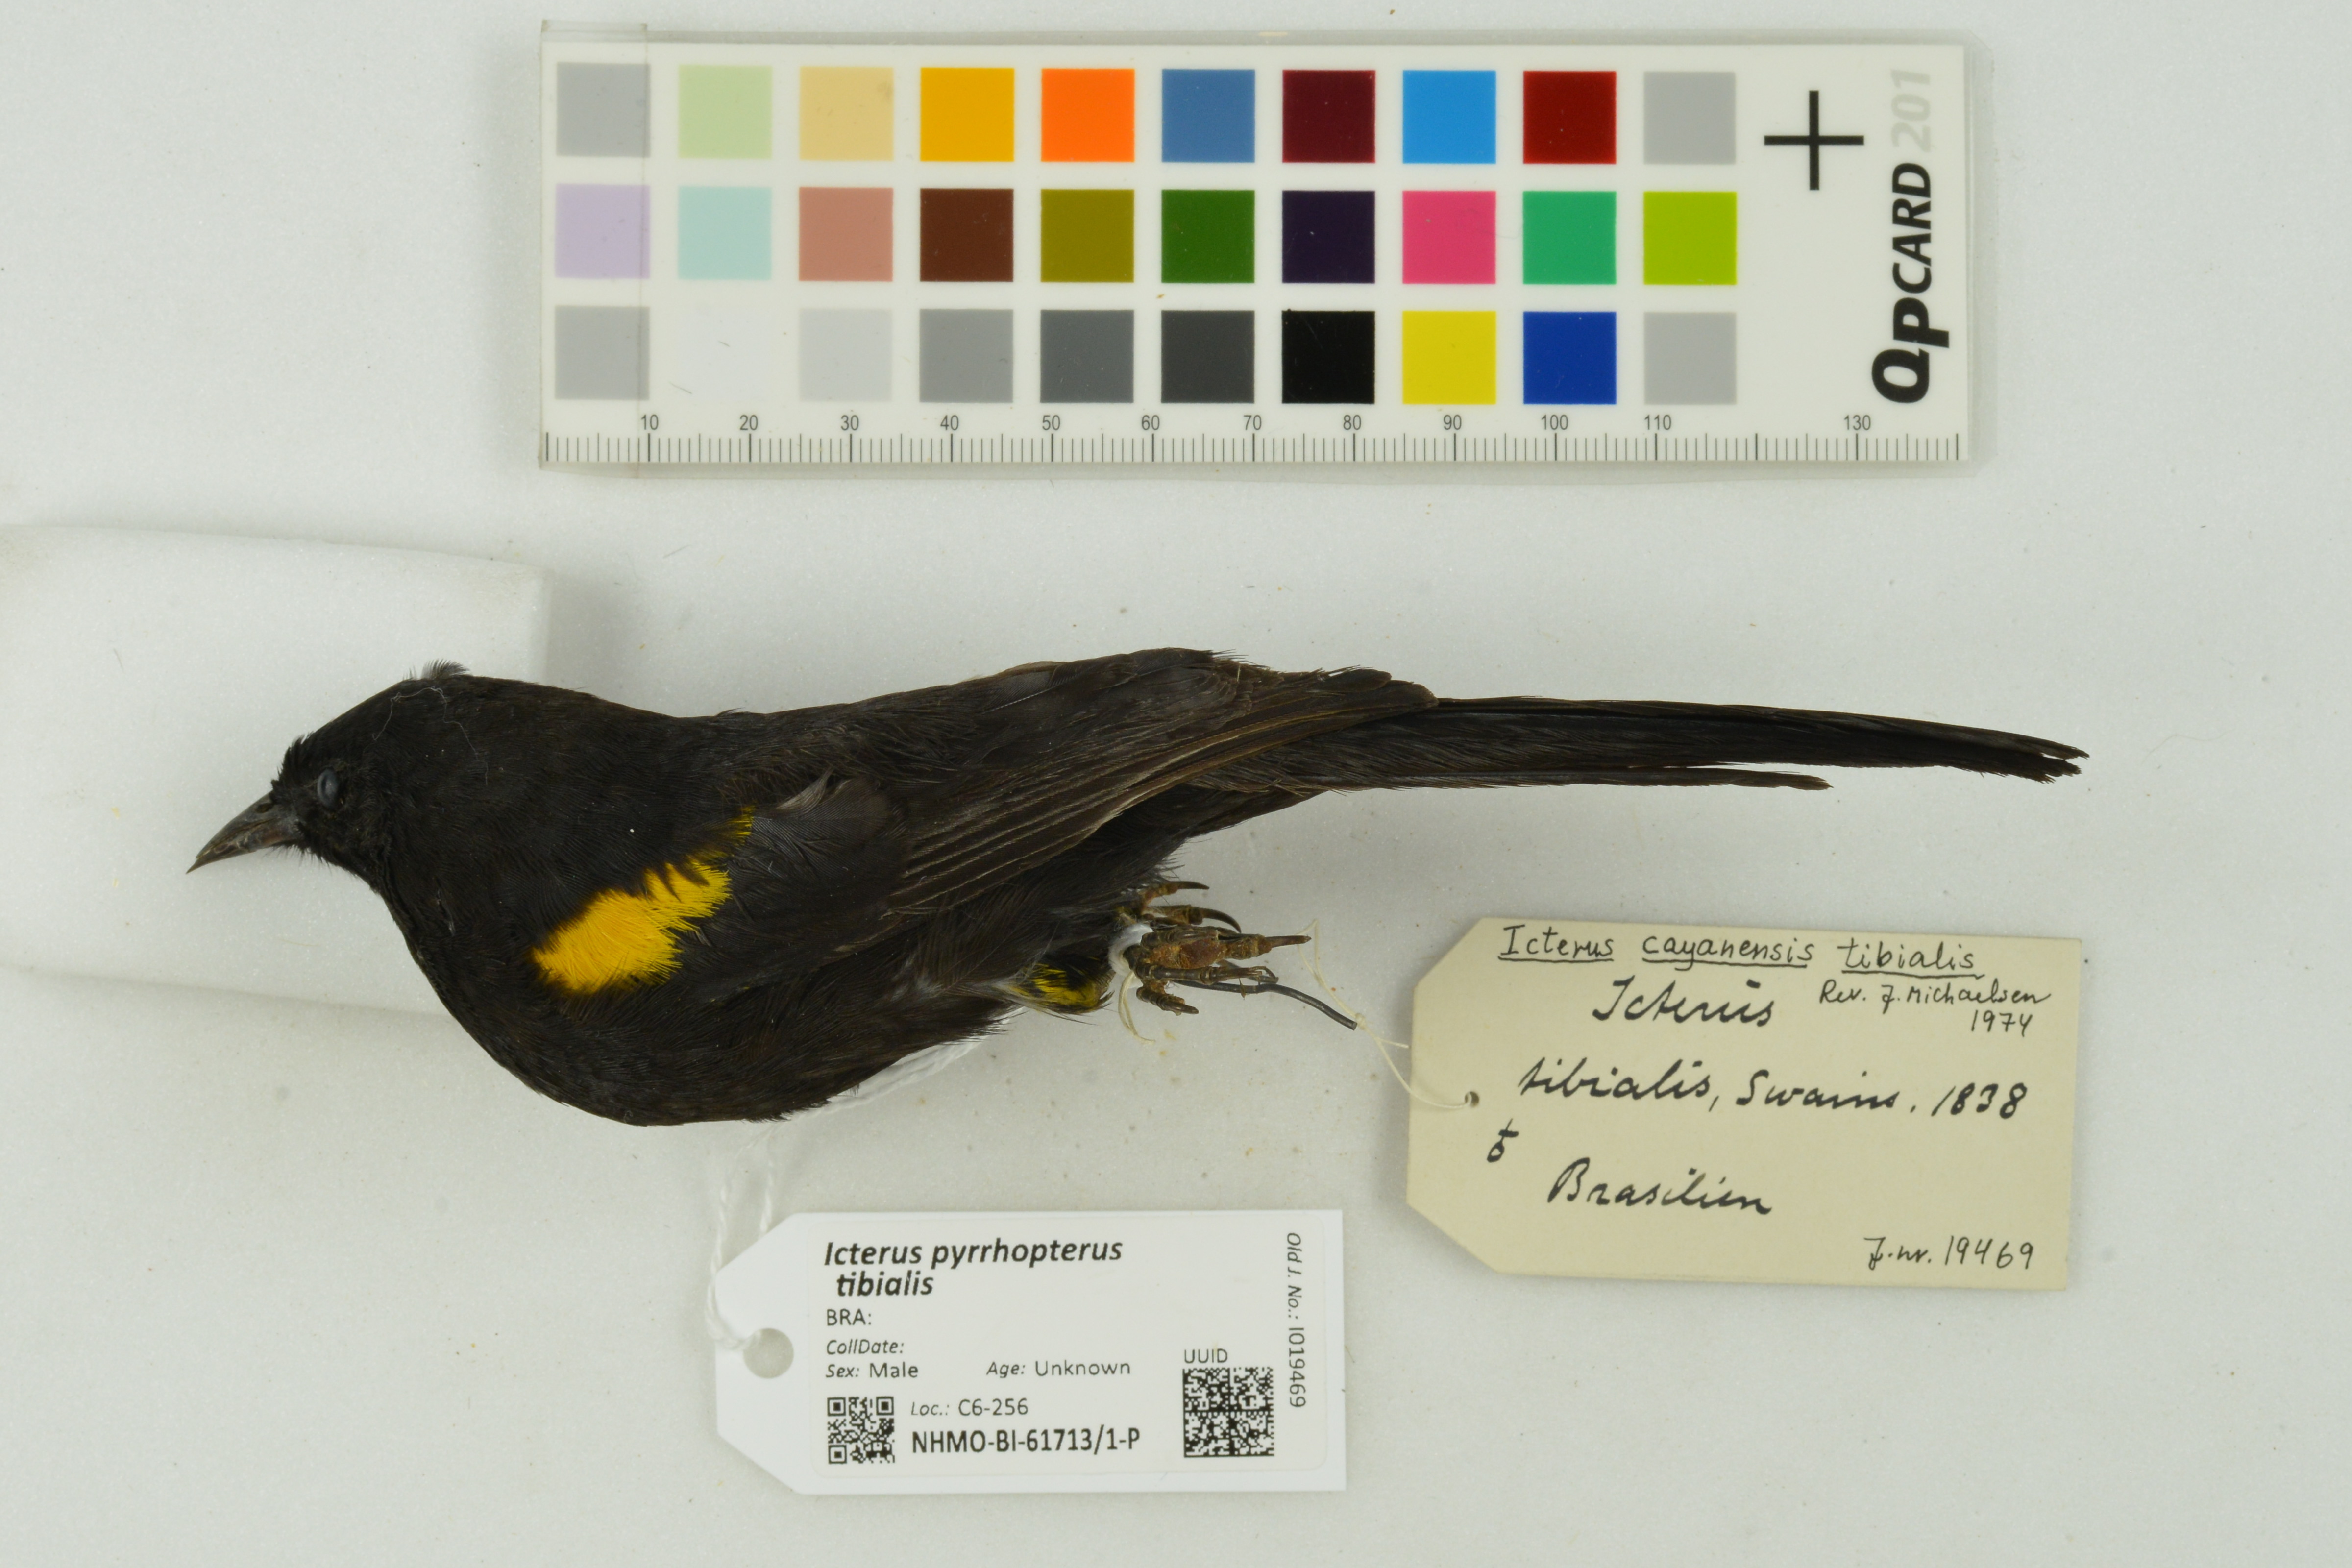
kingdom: Animalia
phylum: Chordata
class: Aves
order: Passeriformes
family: Icteridae
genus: Icterus
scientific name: Icterus cayanensis
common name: Epaulet oriole
